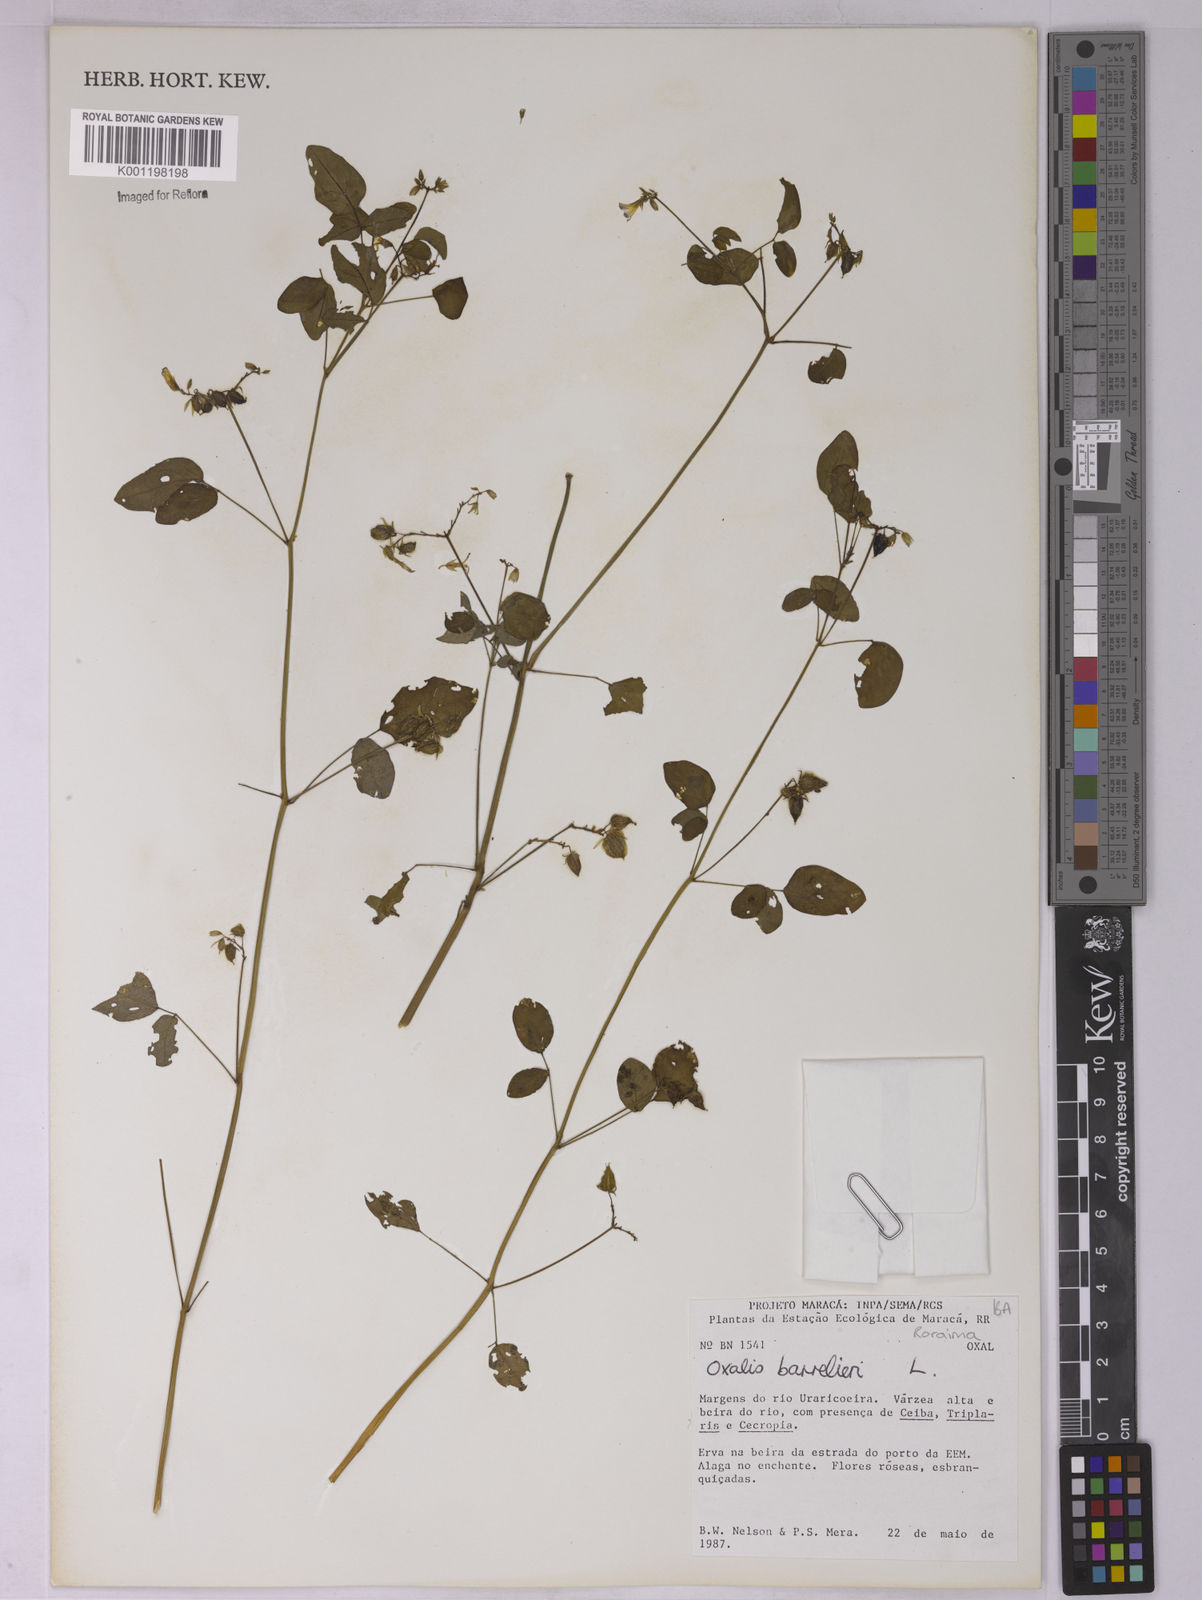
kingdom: Plantae
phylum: Tracheophyta
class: Magnoliopsida
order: Oxalidales
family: Oxalidaceae
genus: Oxalis
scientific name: Oxalis barrelieri
